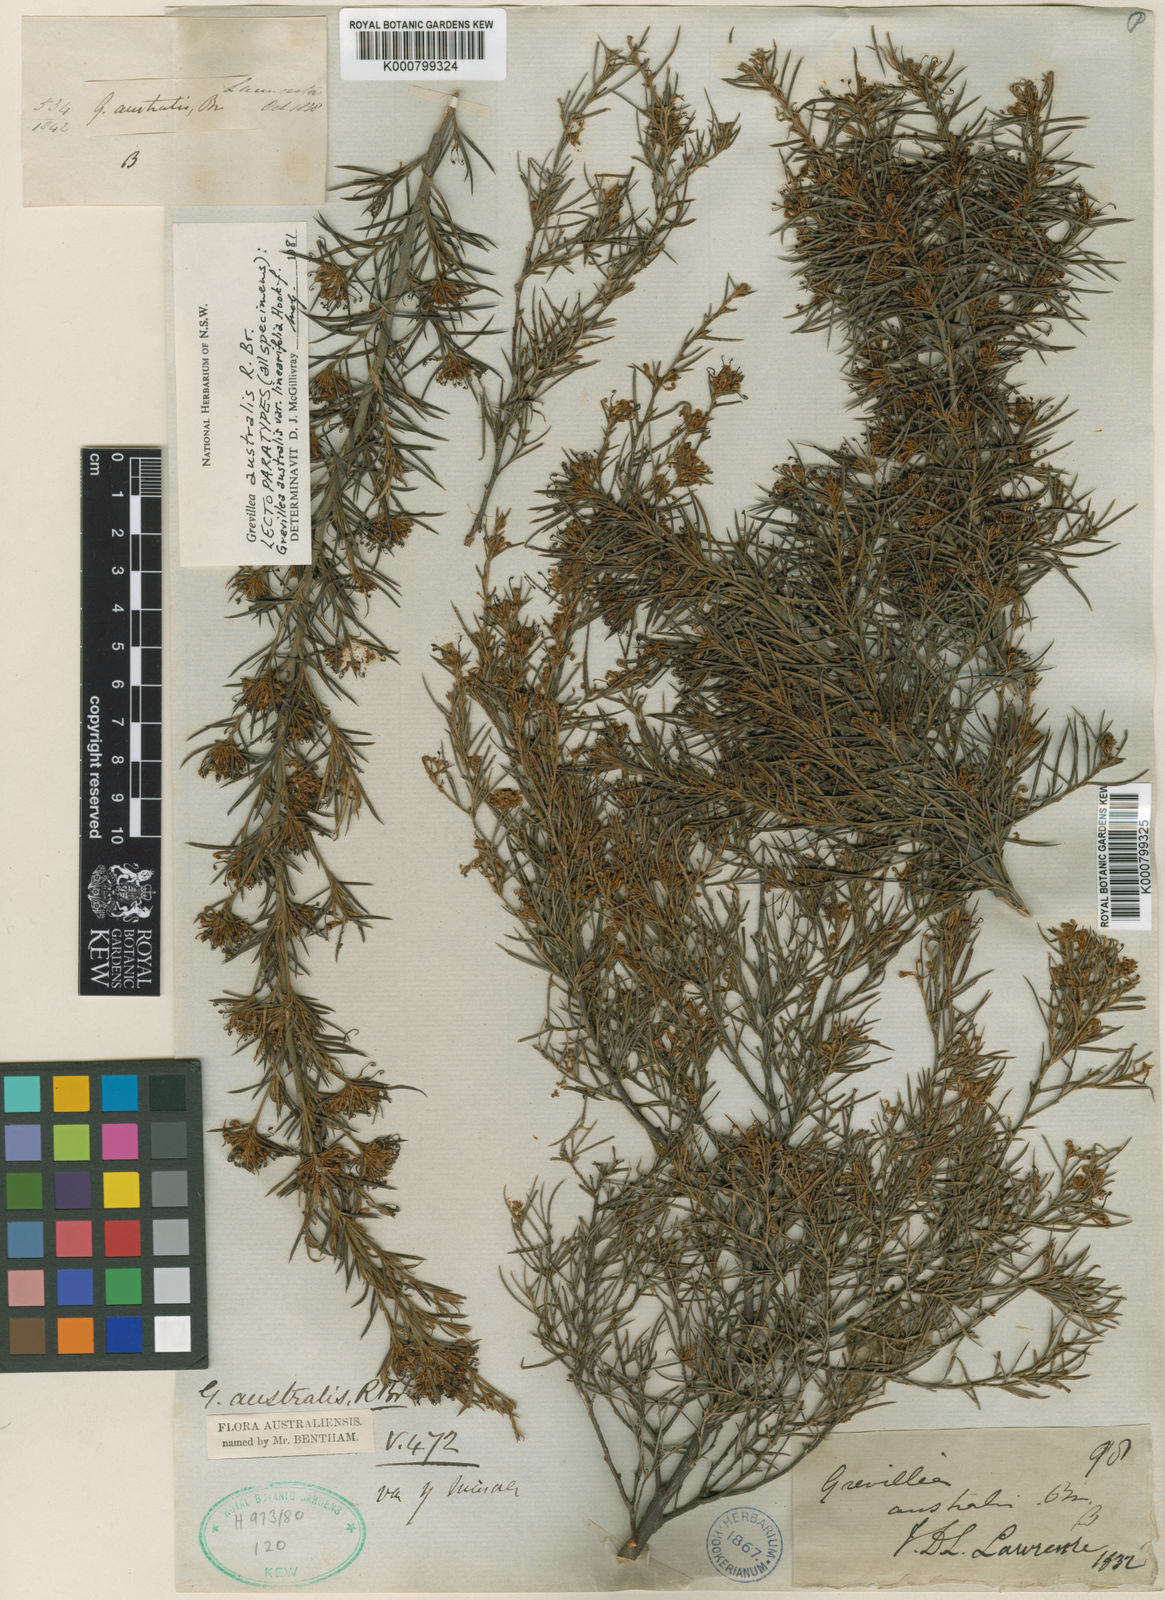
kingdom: Plantae
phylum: Tracheophyta
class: Magnoliopsida
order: Proteales
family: Proteaceae
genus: Grevillea
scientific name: Grevillea australis
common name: Alpine grevillea
